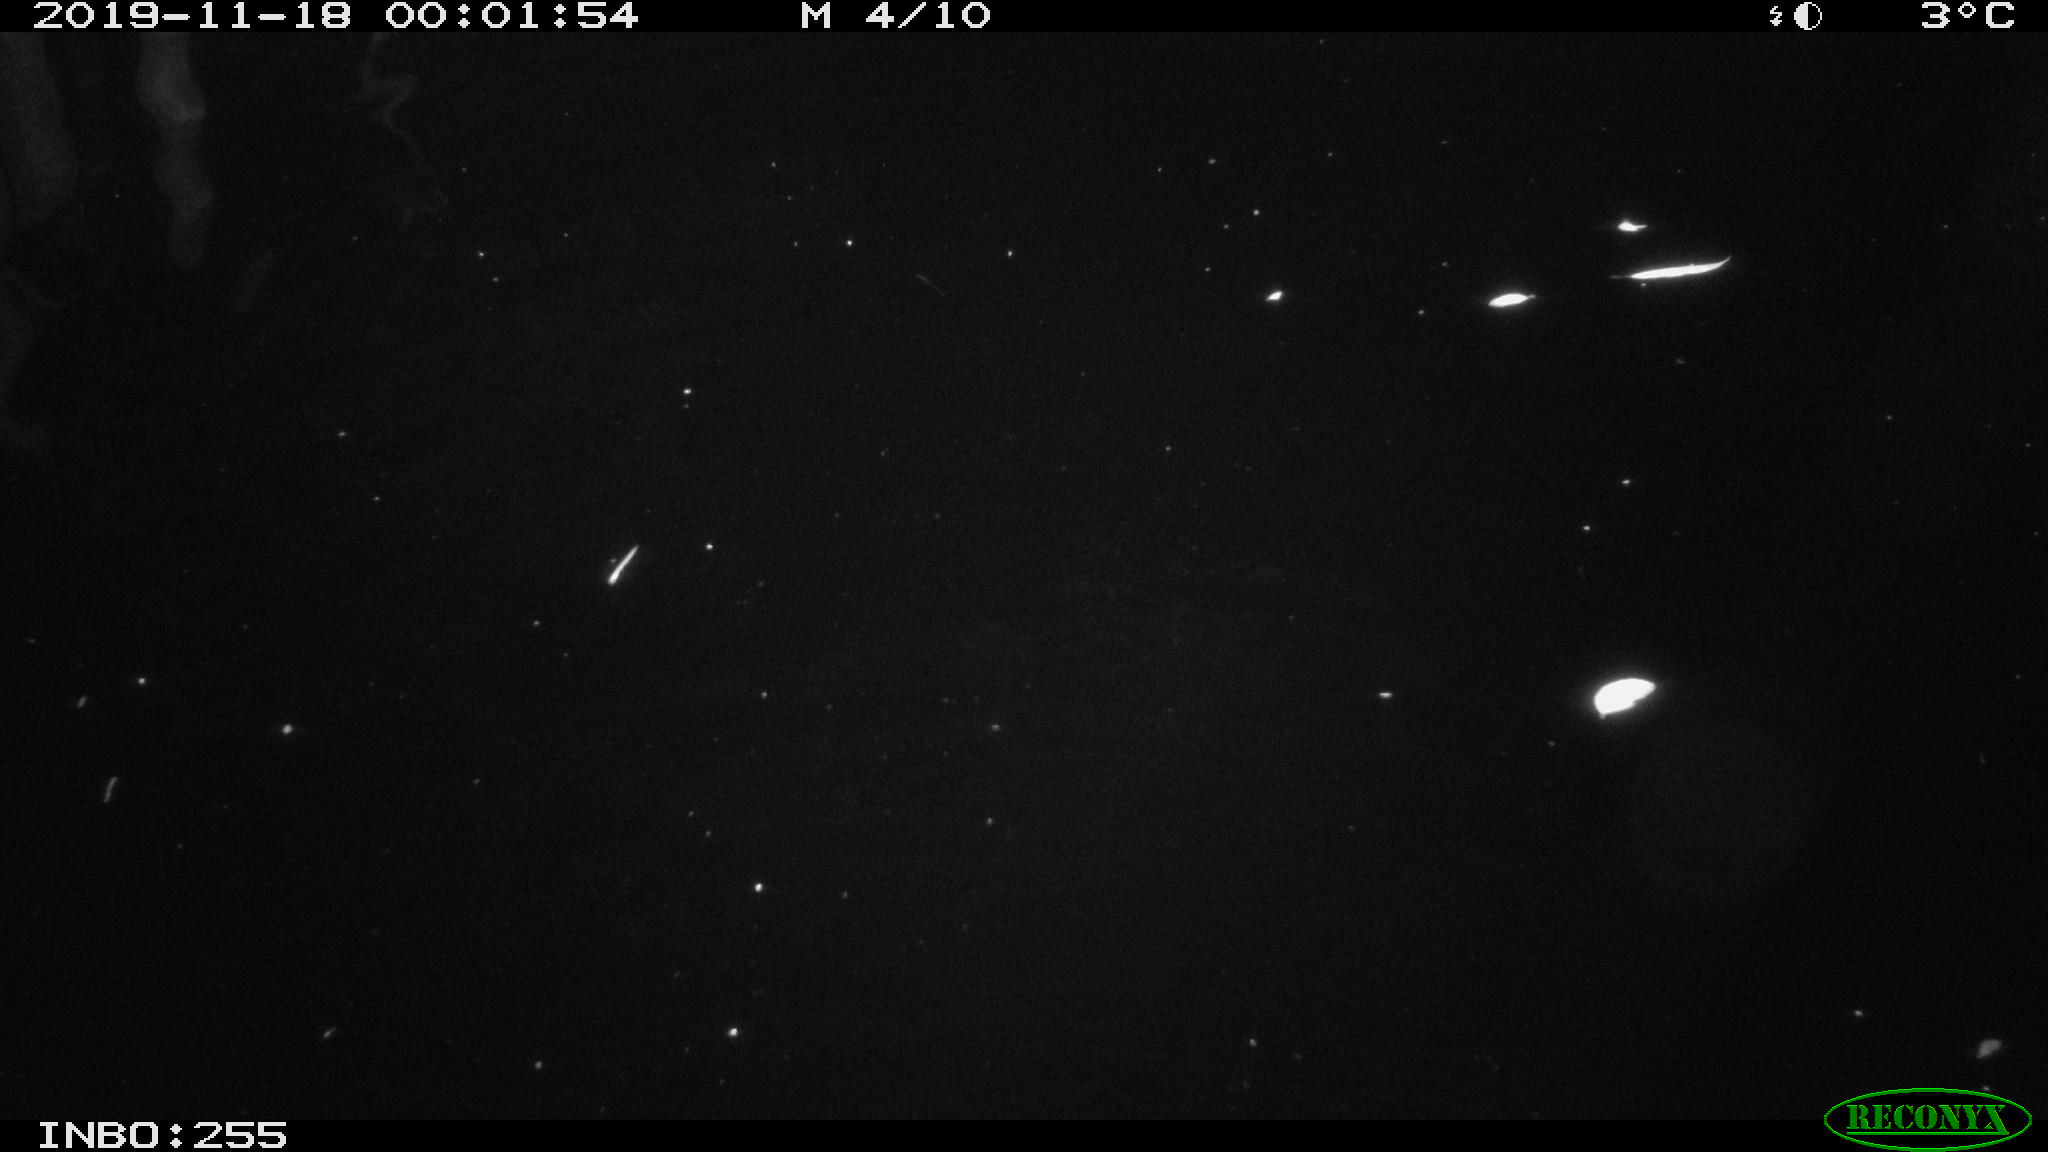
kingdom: Animalia
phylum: Chordata
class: Mammalia
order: Rodentia
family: Cricetidae
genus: Ondatra
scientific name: Ondatra zibethicus
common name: Muskrat
